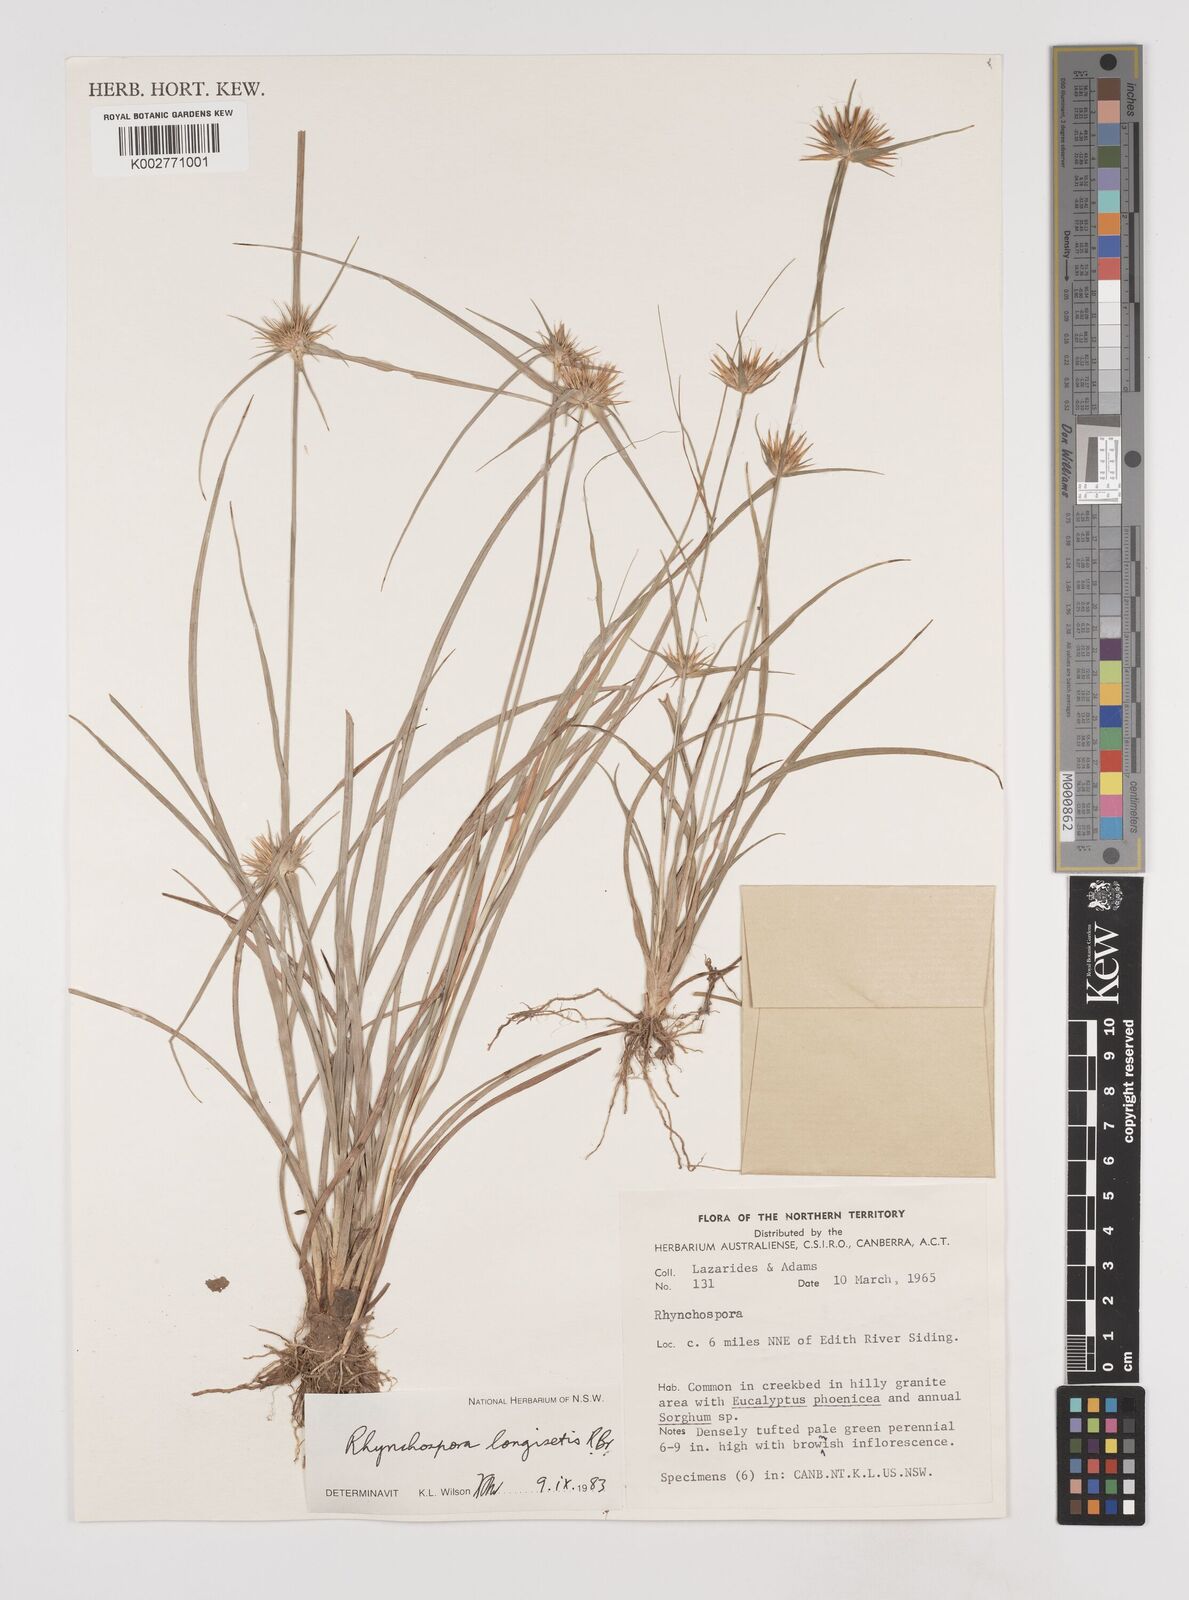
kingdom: Plantae
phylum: Tracheophyta
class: Liliopsida
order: Poales
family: Cyperaceae
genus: Rhynchospora
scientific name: Rhynchospora longisetis
